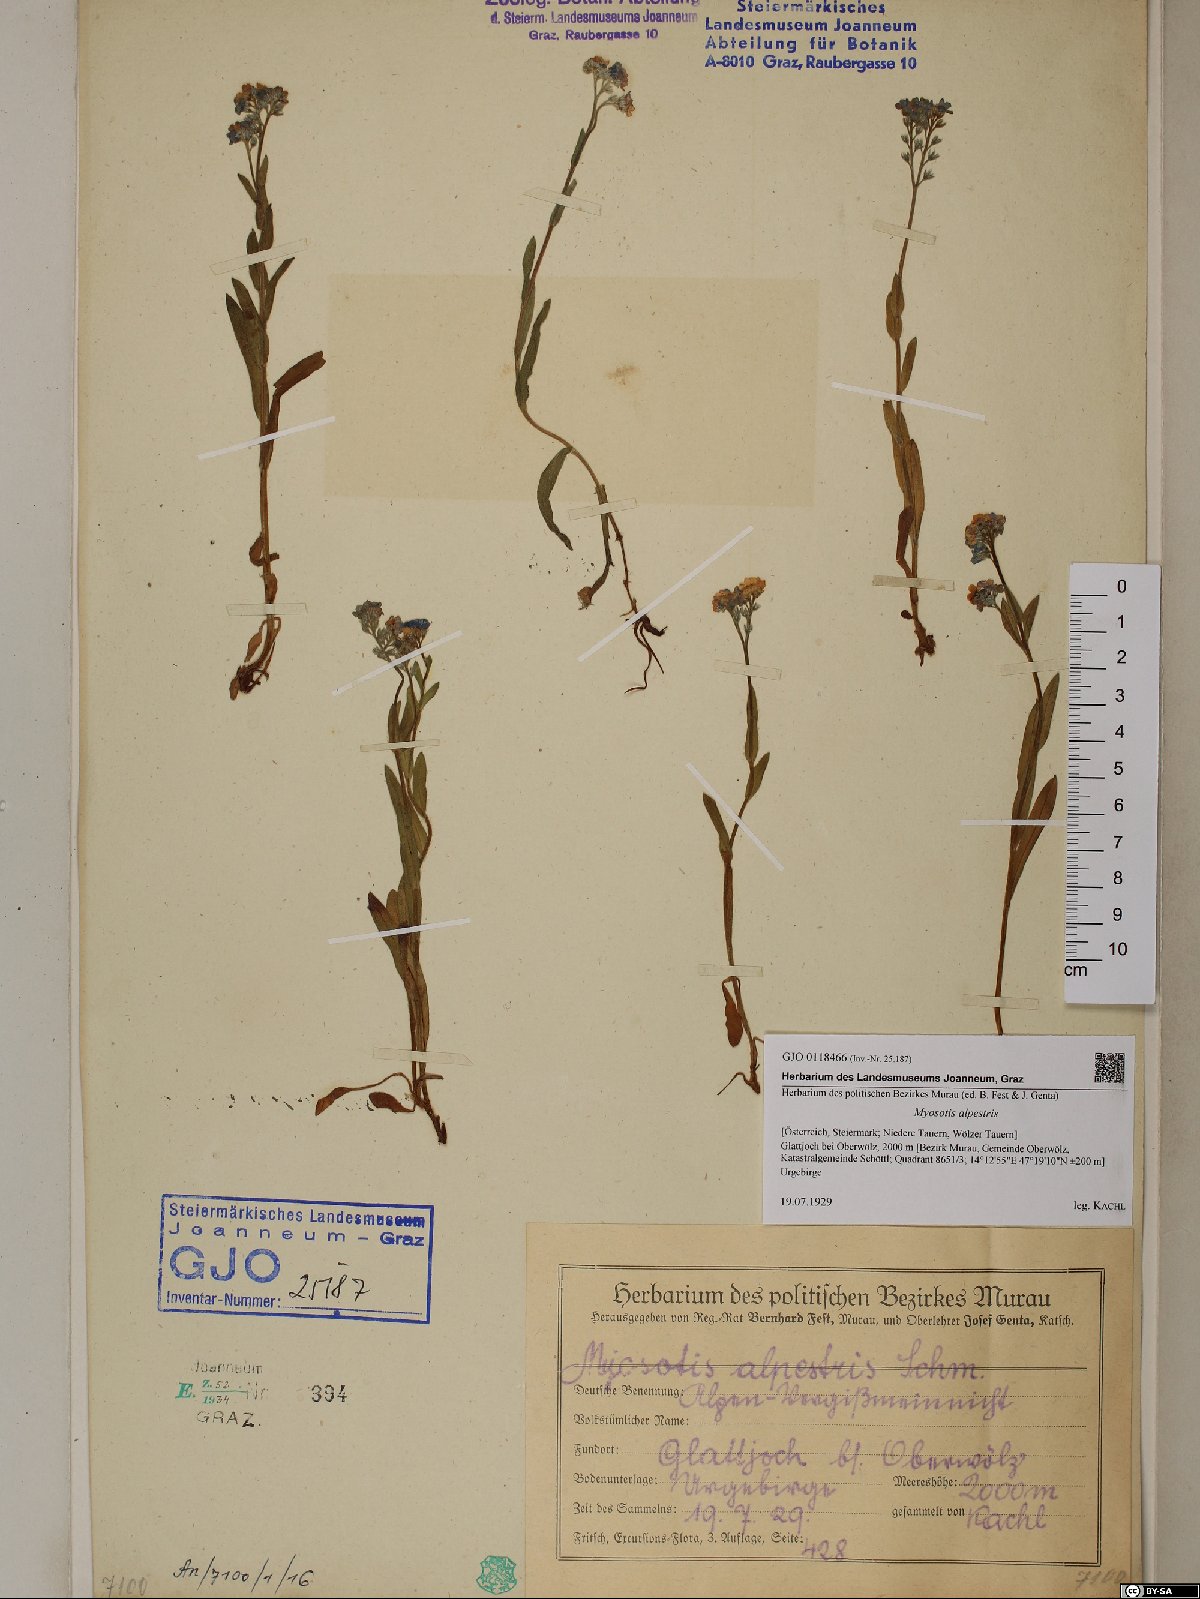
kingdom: Plantae
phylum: Tracheophyta
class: Magnoliopsida
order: Boraginales
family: Boraginaceae
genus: Myosotis
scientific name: Myosotis alpestris
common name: Alpine forget-me-not
